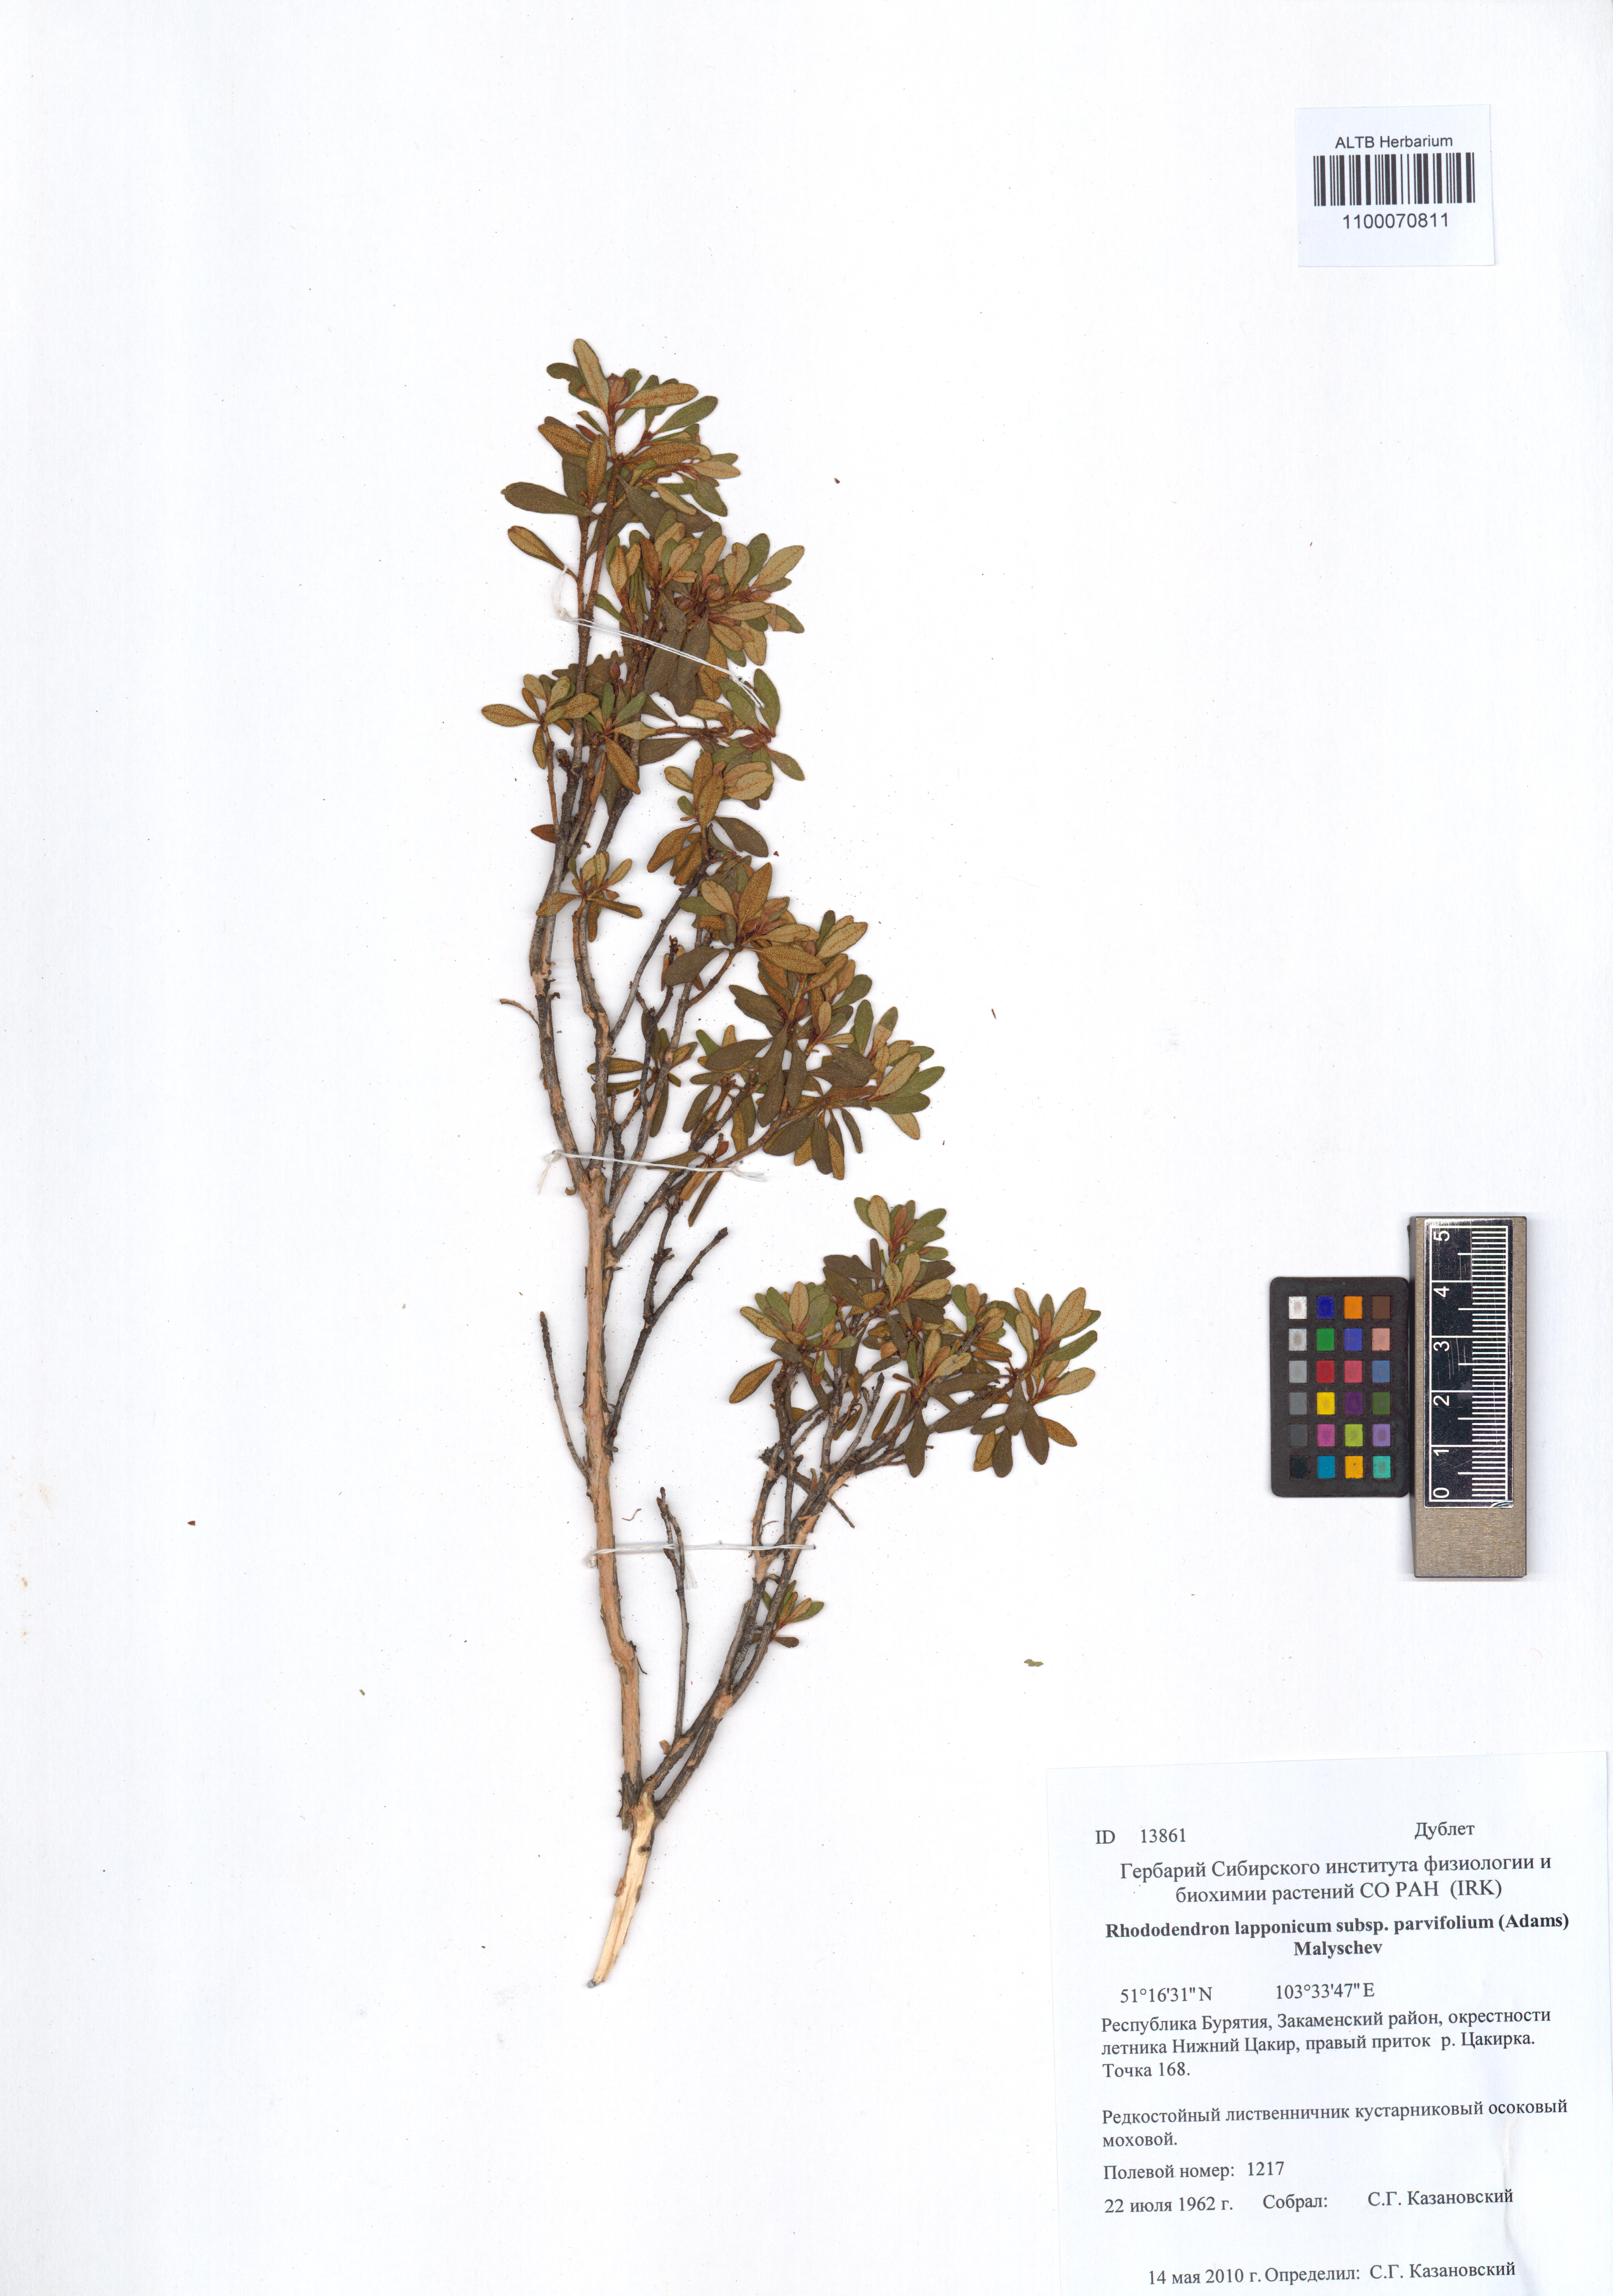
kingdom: Plantae
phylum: Tracheophyta
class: Magnoliopsida
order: Ericales
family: Ericaceae
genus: Rhododendron
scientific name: Rhododendron lapponicum
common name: Lapland rhododendron
